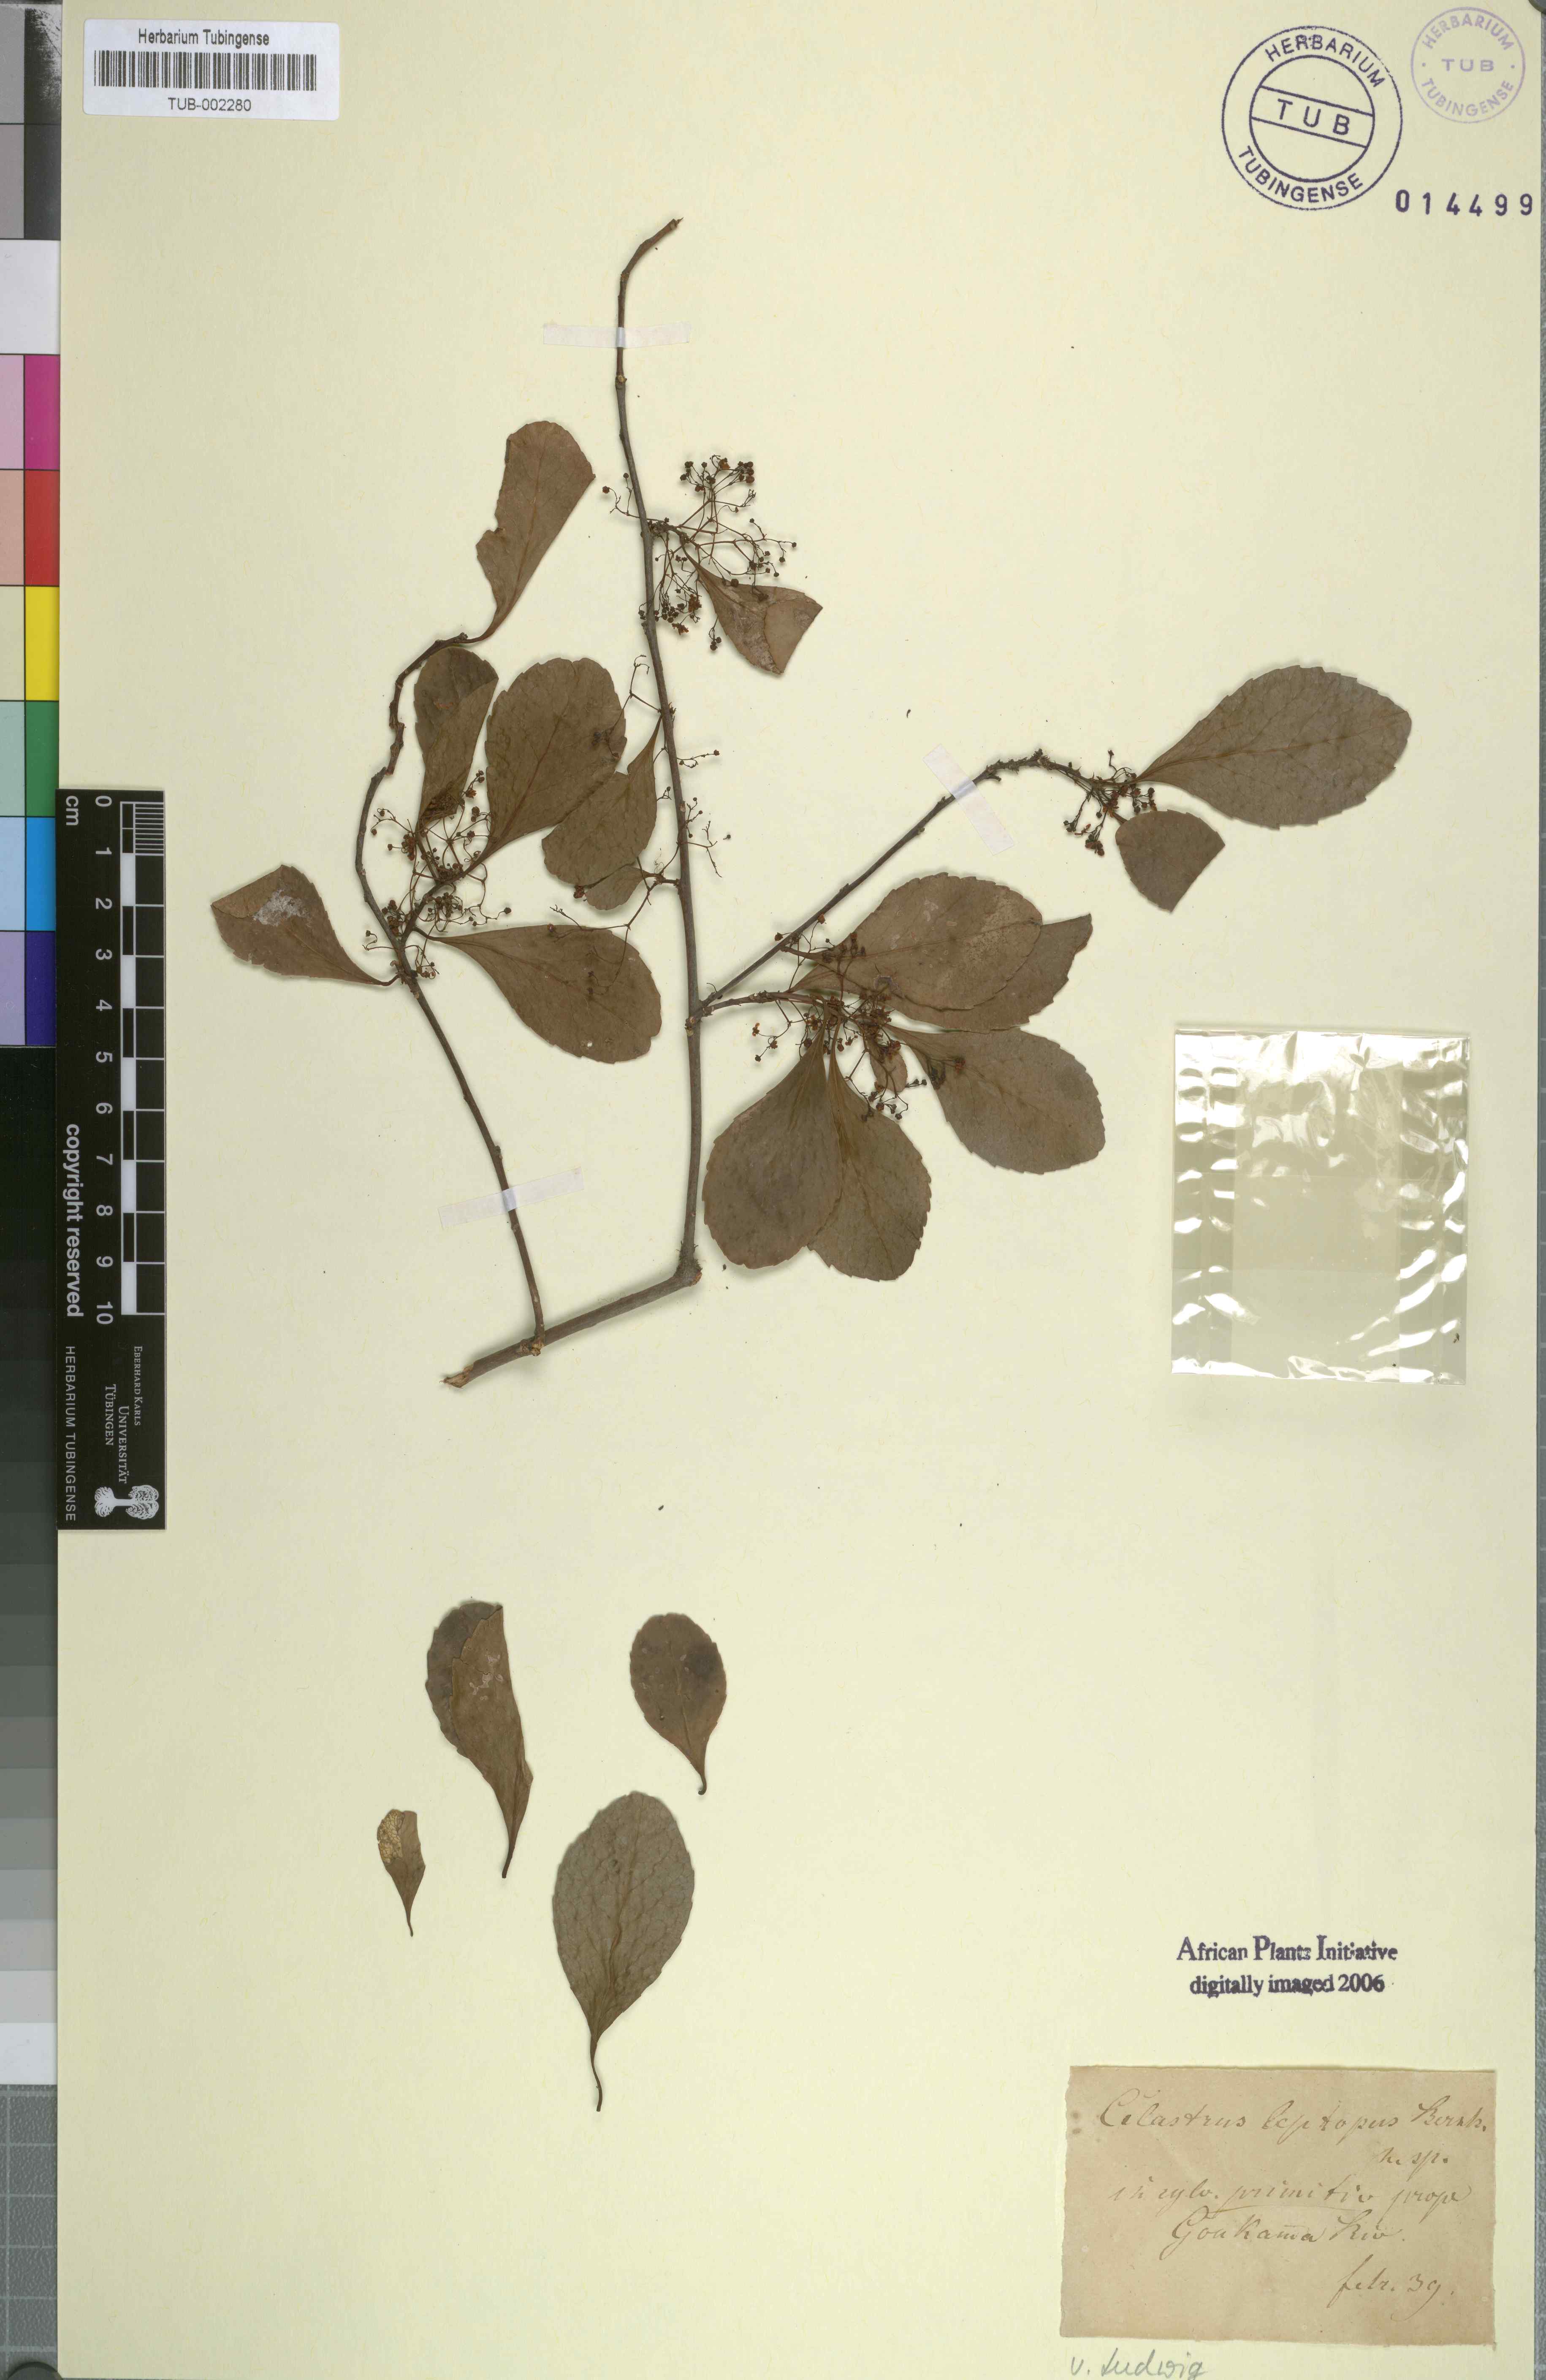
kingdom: Plantae
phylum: Tracheophyta
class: Magnoliopsida
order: Celastrales
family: Celastraceae
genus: Gymnosporia
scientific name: Gymnosporia buxifolia
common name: Common spike-thorn
